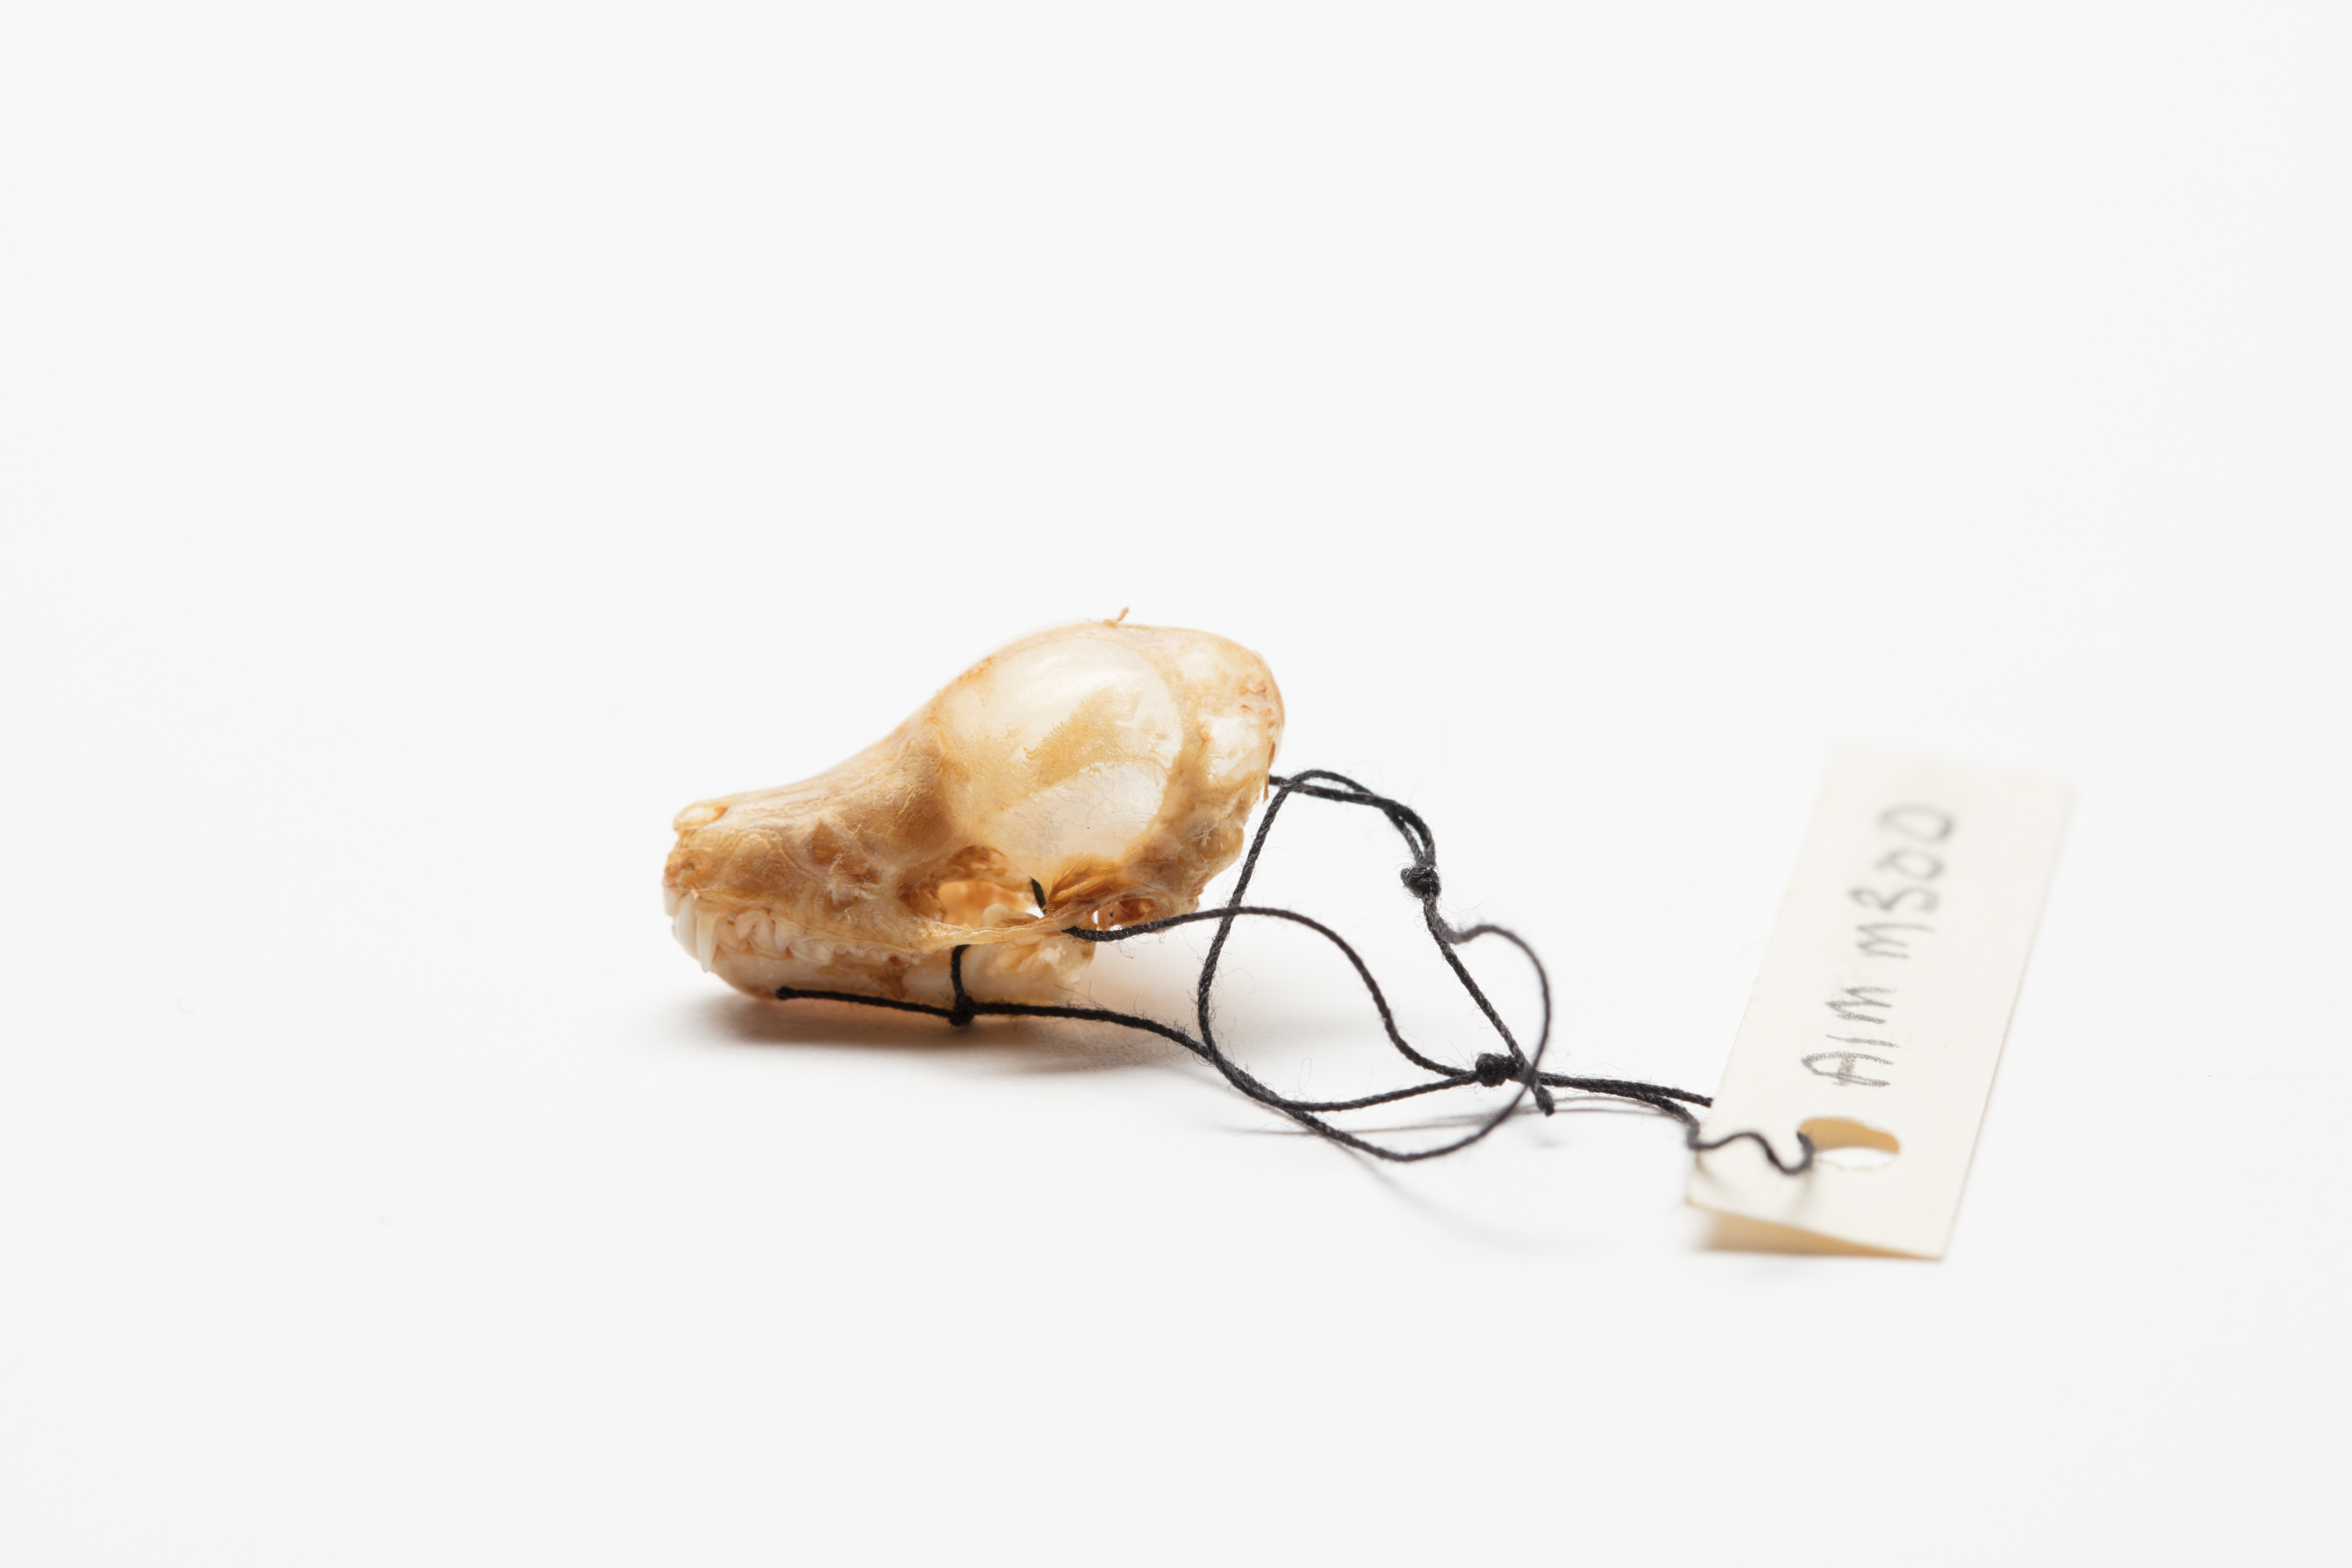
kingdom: Animalia
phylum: Chordata
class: Mammalia
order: Chiroptera
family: Mystacinidae
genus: Mystacina
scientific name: Mystacina tuberculata
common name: New zealand lesser short-tailed bat
